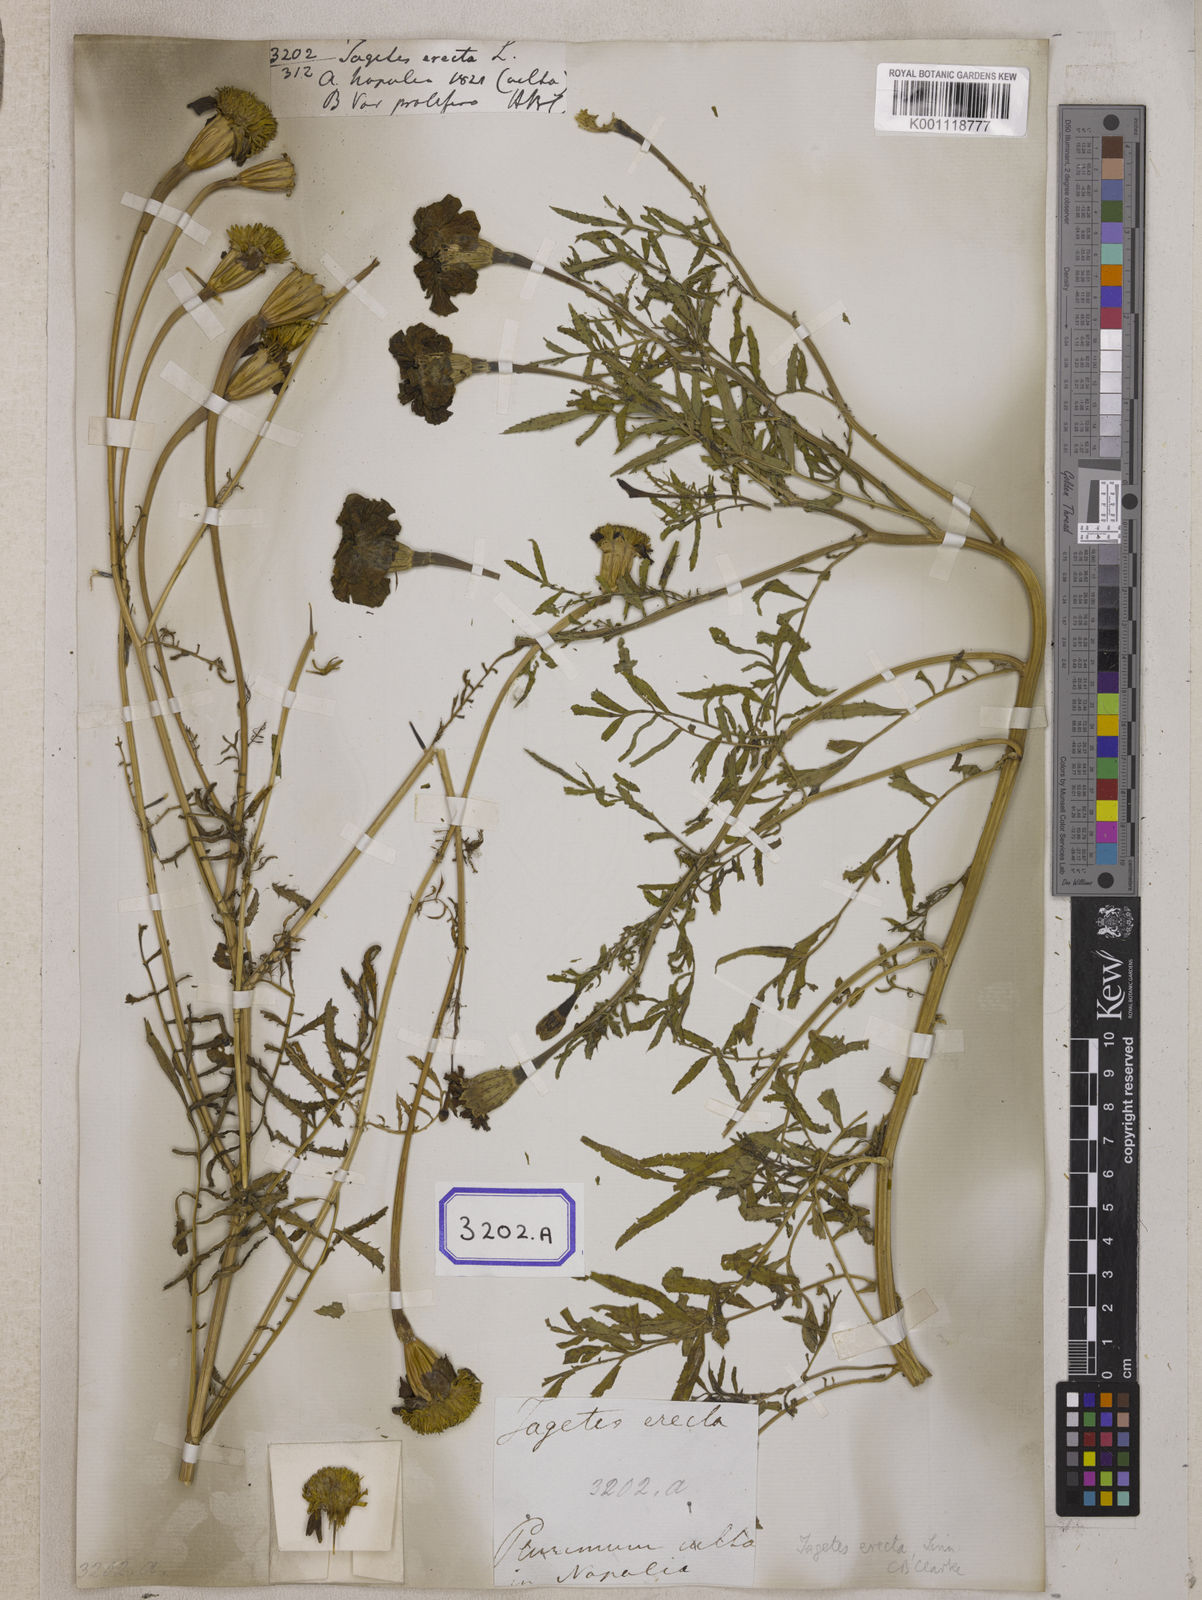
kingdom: Plantae
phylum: Tracheophyta
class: Magnoliopsida
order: Asterales
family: Asteraceae
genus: Tagetes
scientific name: Tagetes erecta
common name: African marigold
